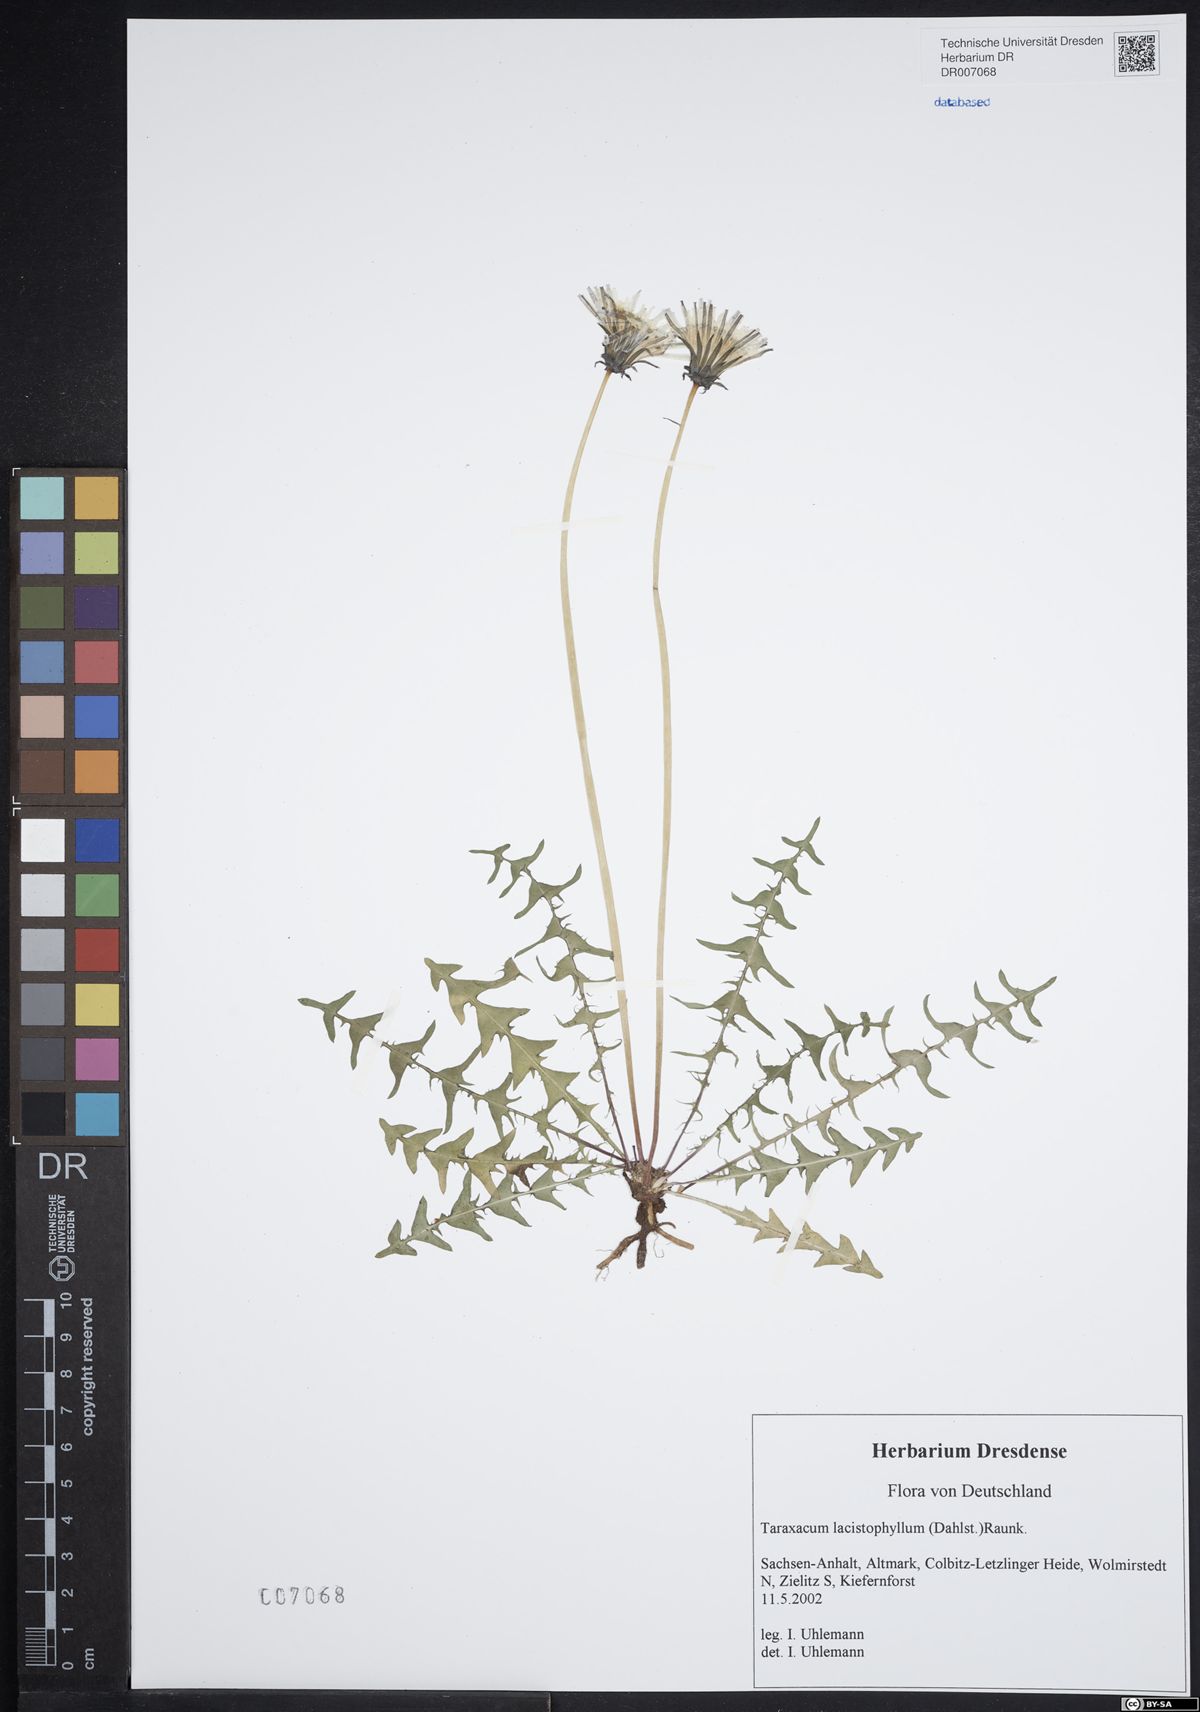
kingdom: Plantae
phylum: Tracheophyta
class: Magnoliopsida
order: Asterales
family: Asteraceae
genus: Taraxacum
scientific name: Taraxacum lacistophyllum
